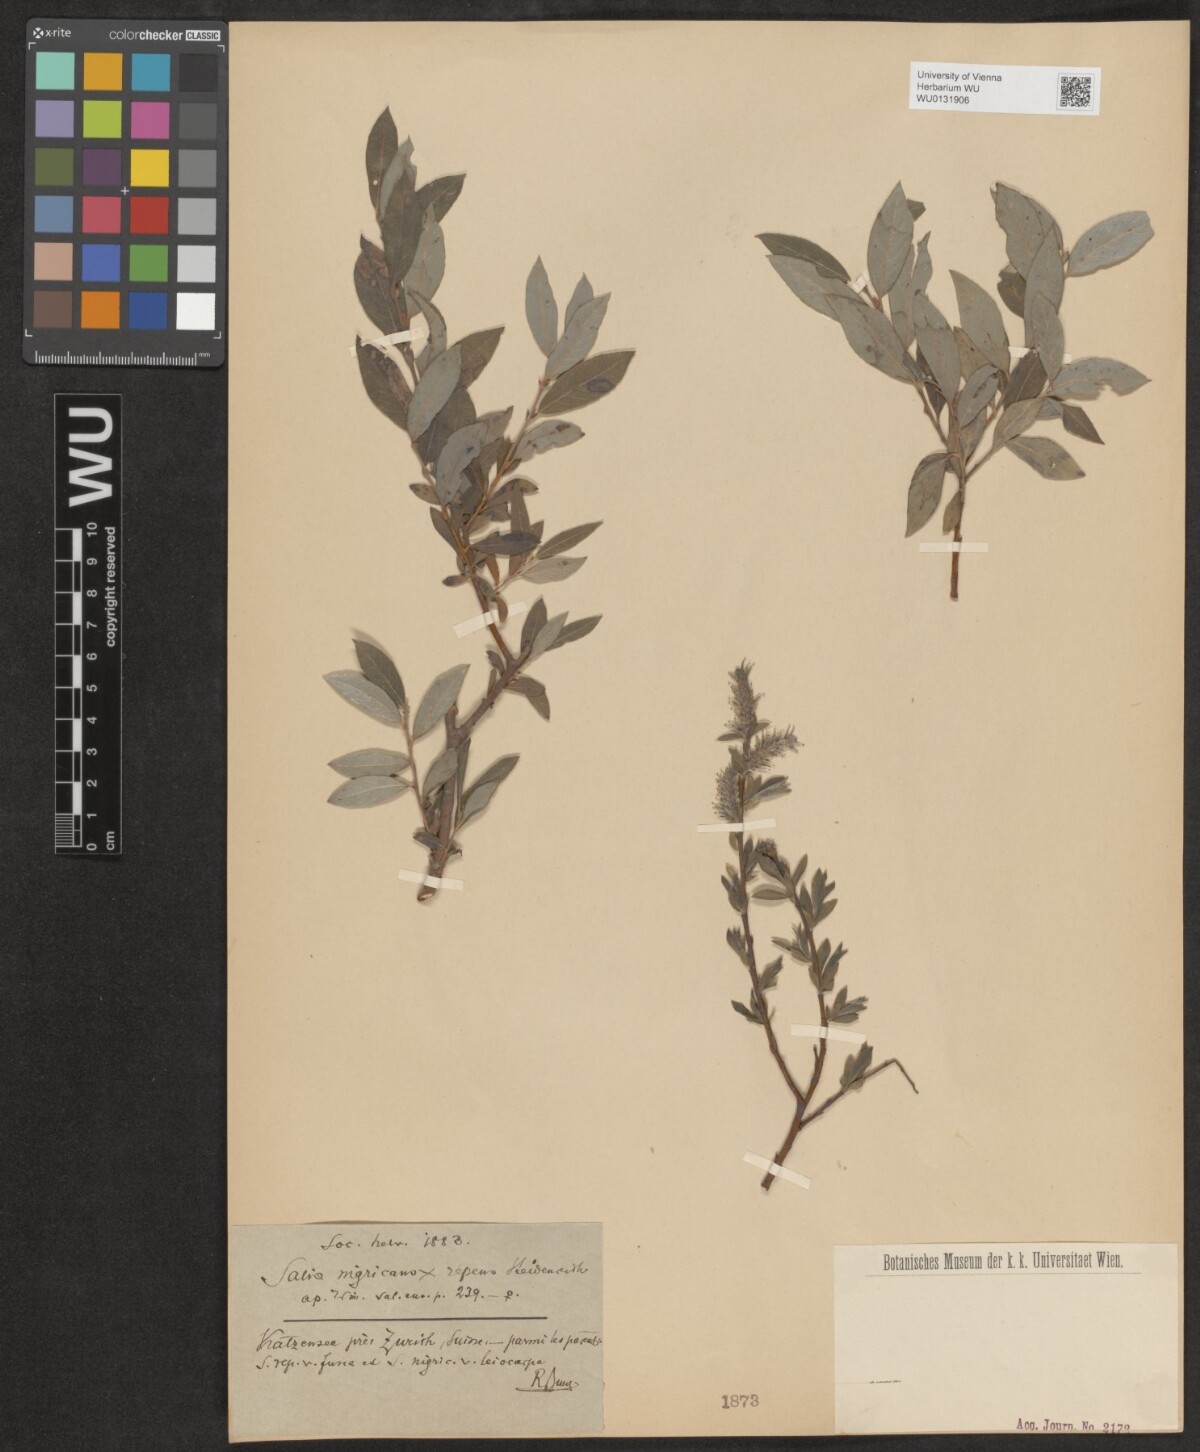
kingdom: Plantae
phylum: Tracheophyta
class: Magnoliopsida
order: Malpighiales
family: Salicaceae
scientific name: Salicaceae
